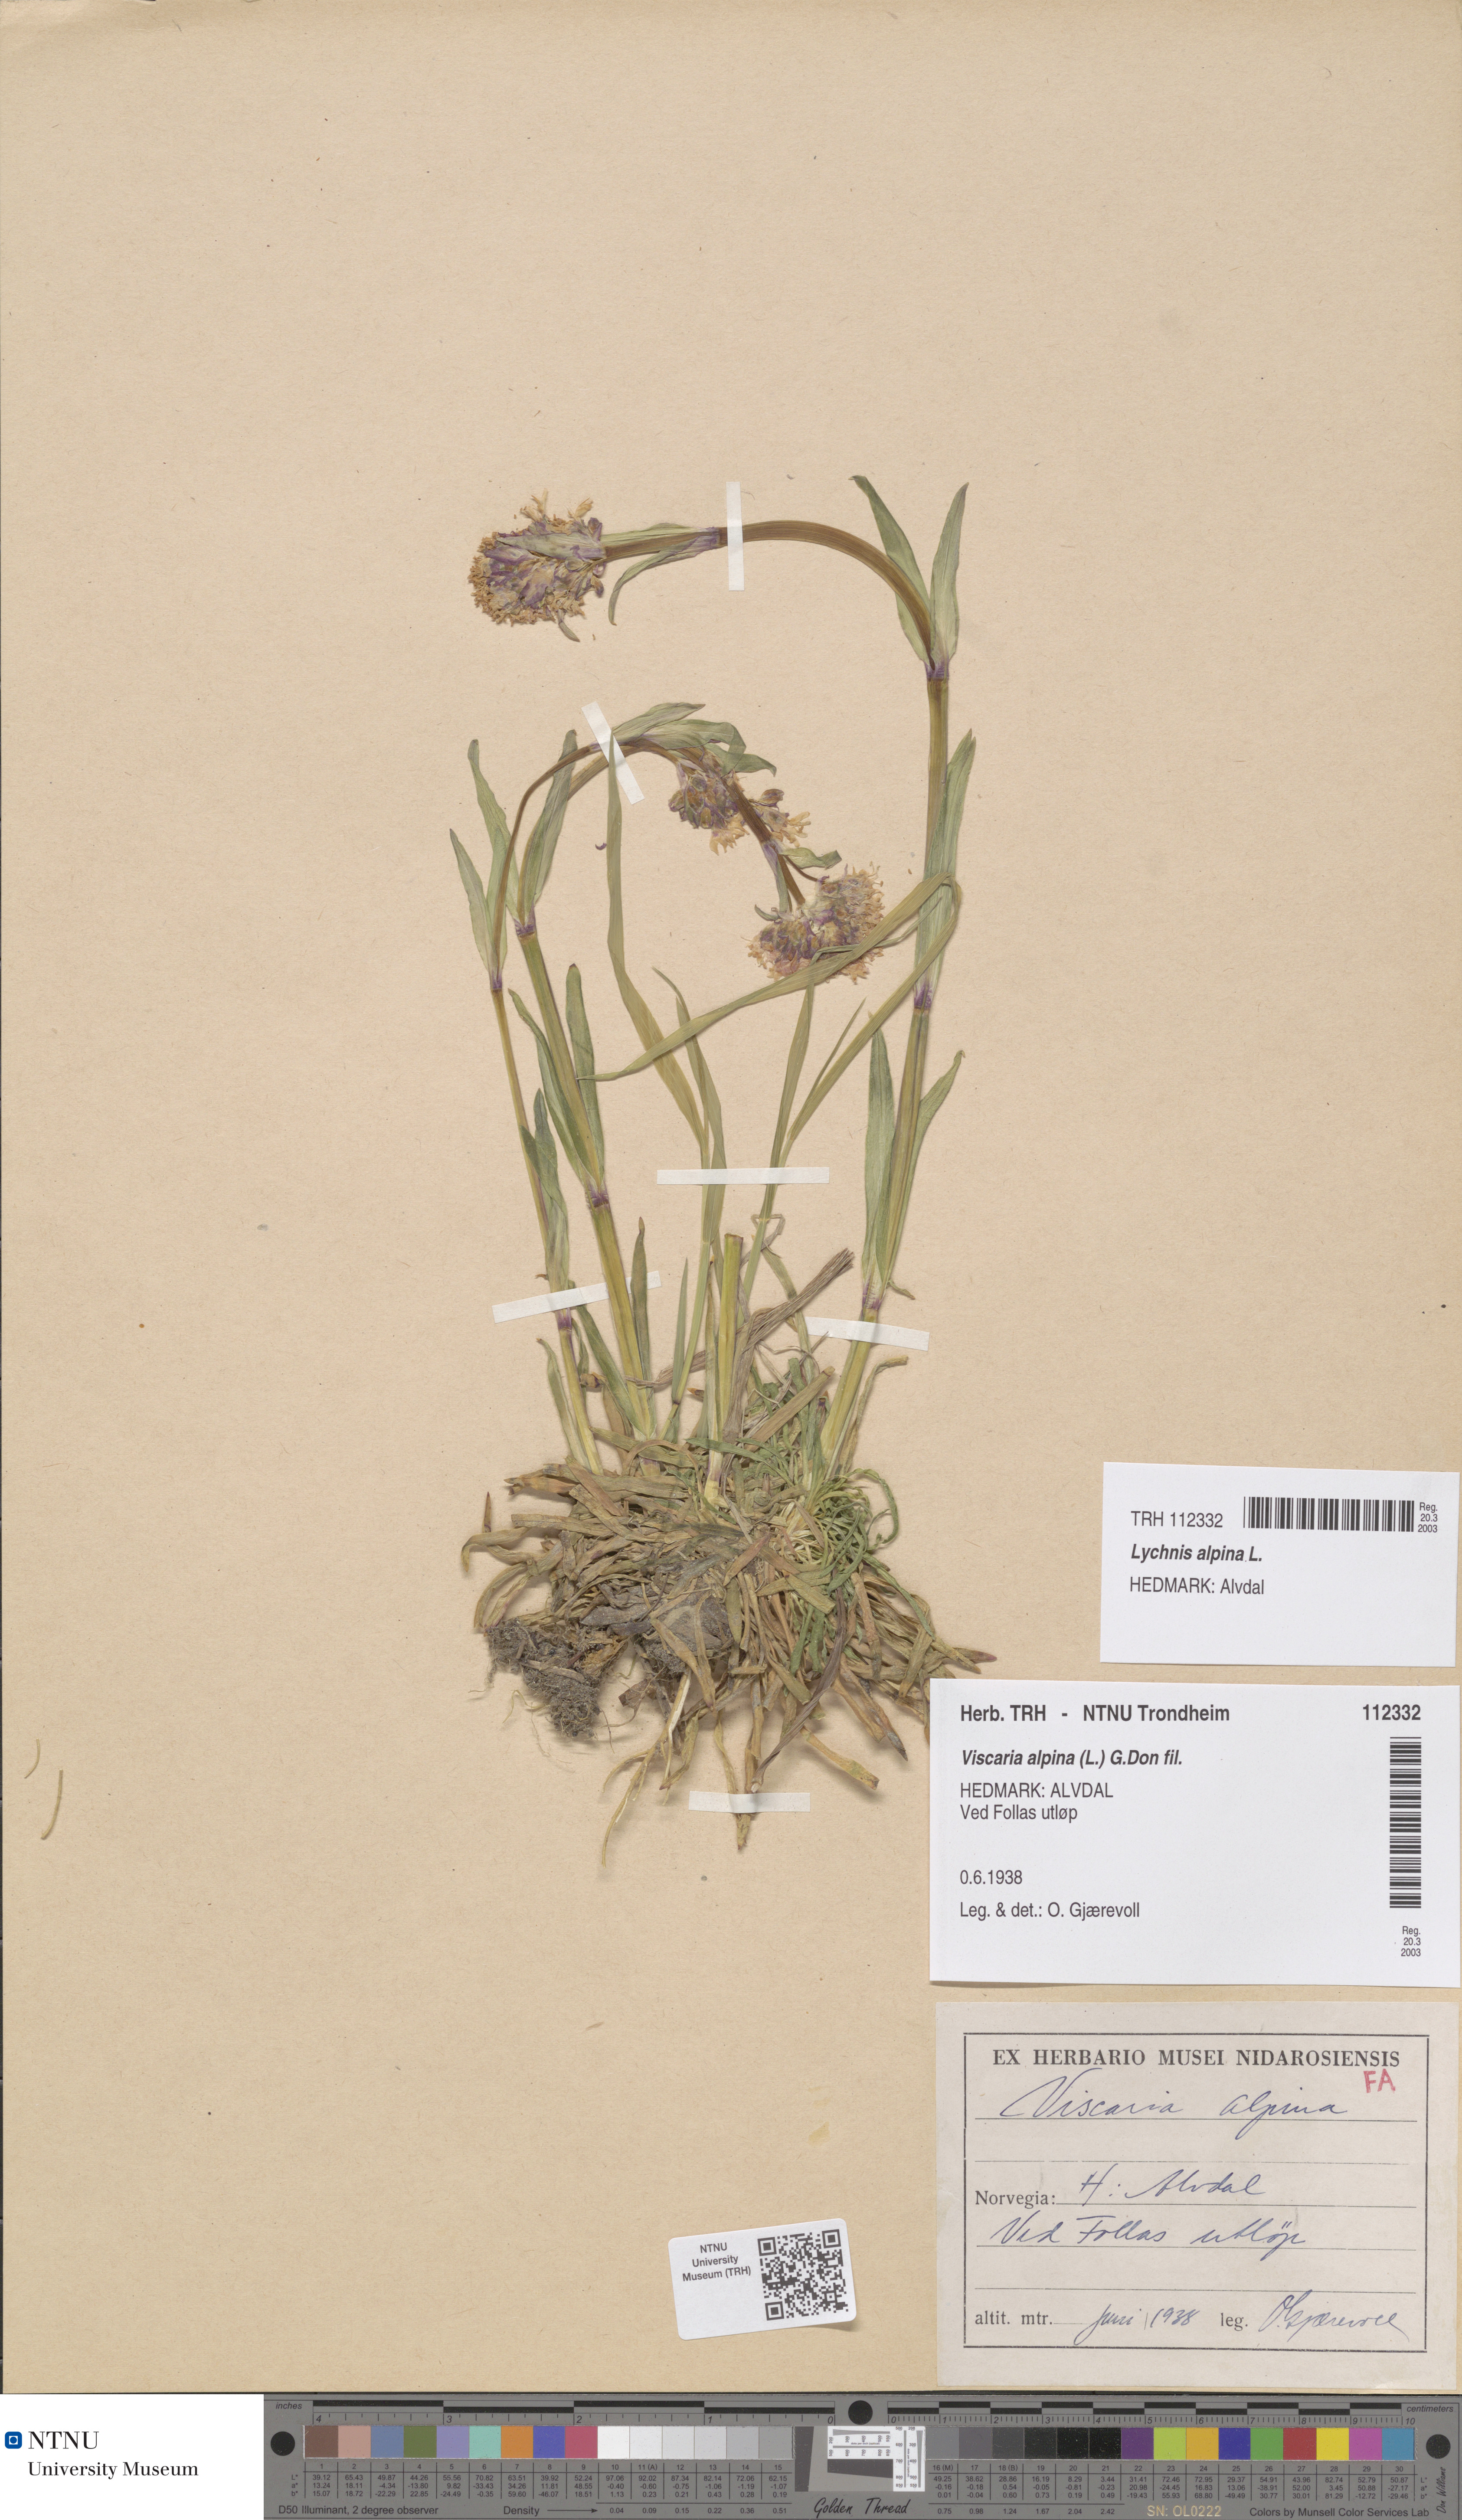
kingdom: Plantae
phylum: Tracheophyta
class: Magnoliopsida
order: Caryophyllales
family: Caryophyllaceae
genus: Viscaria
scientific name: Viscaria alpina
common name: Alpine campion
